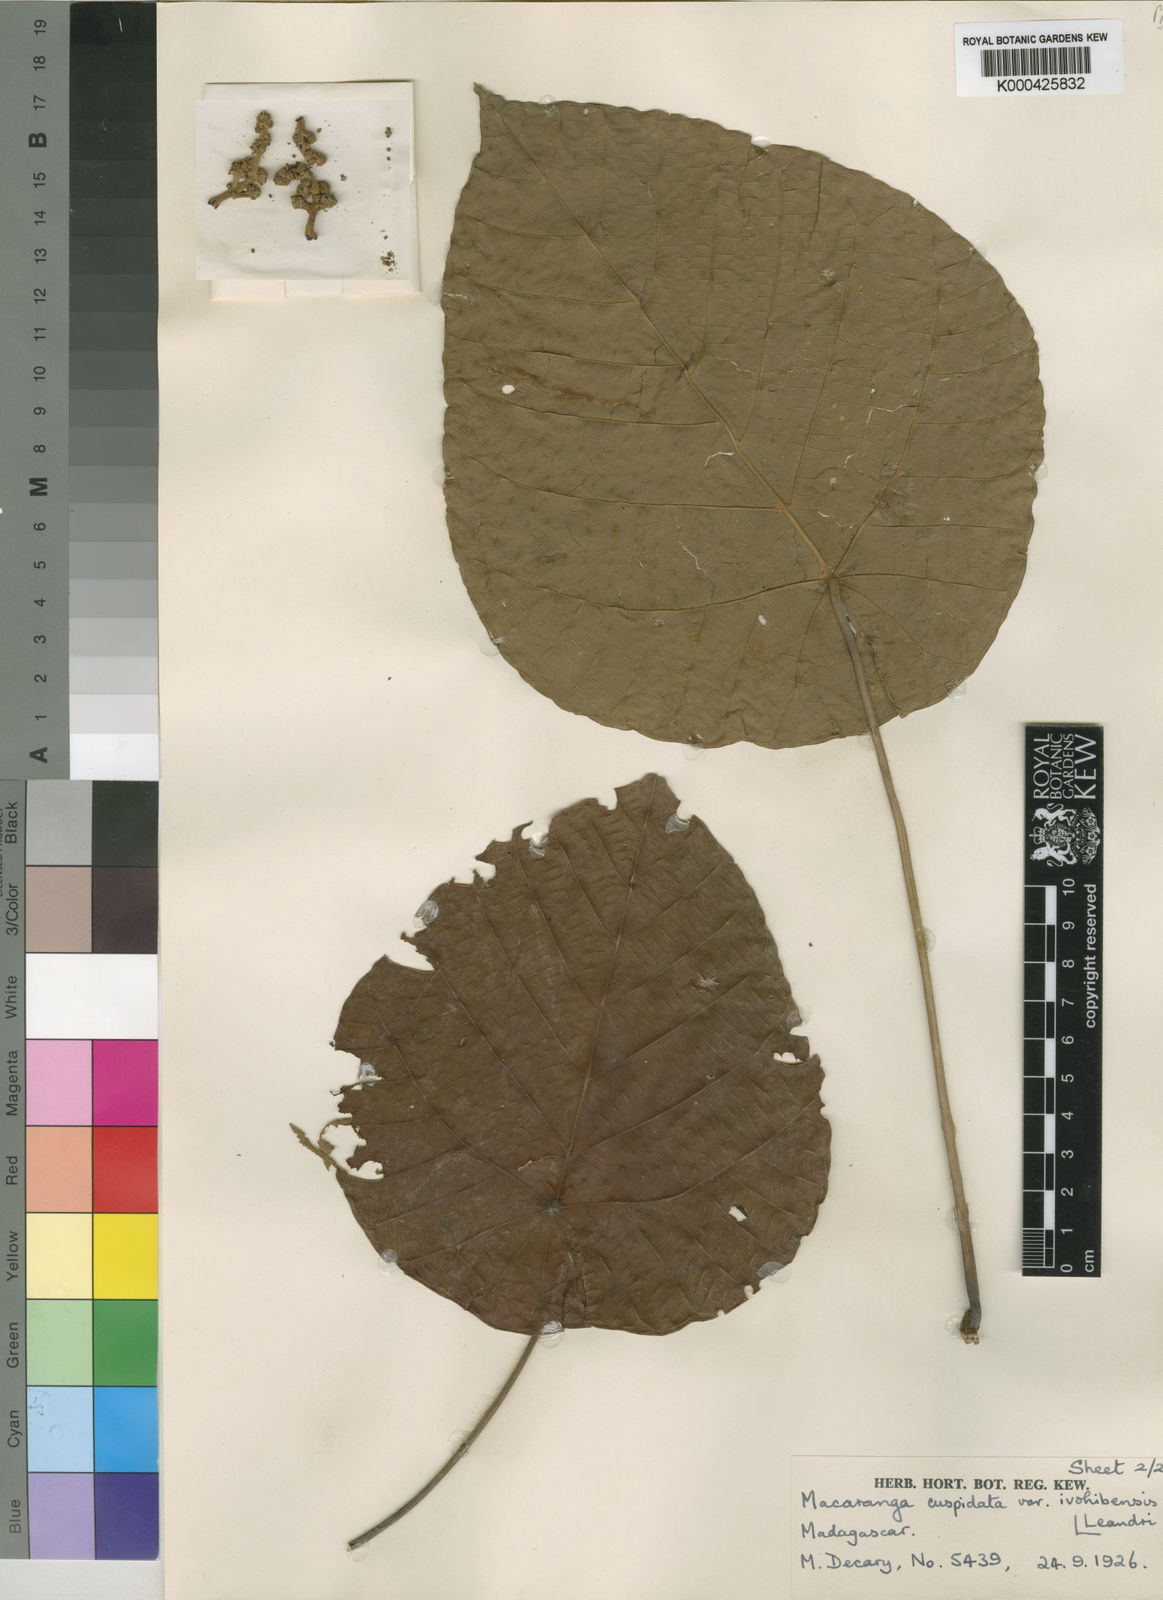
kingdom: Plantae
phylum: Tracheophyta
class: Magnoliopsida
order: Malpighiales
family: Euphorbiaceae
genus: Macaranga
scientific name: Macaranga cuspidata
